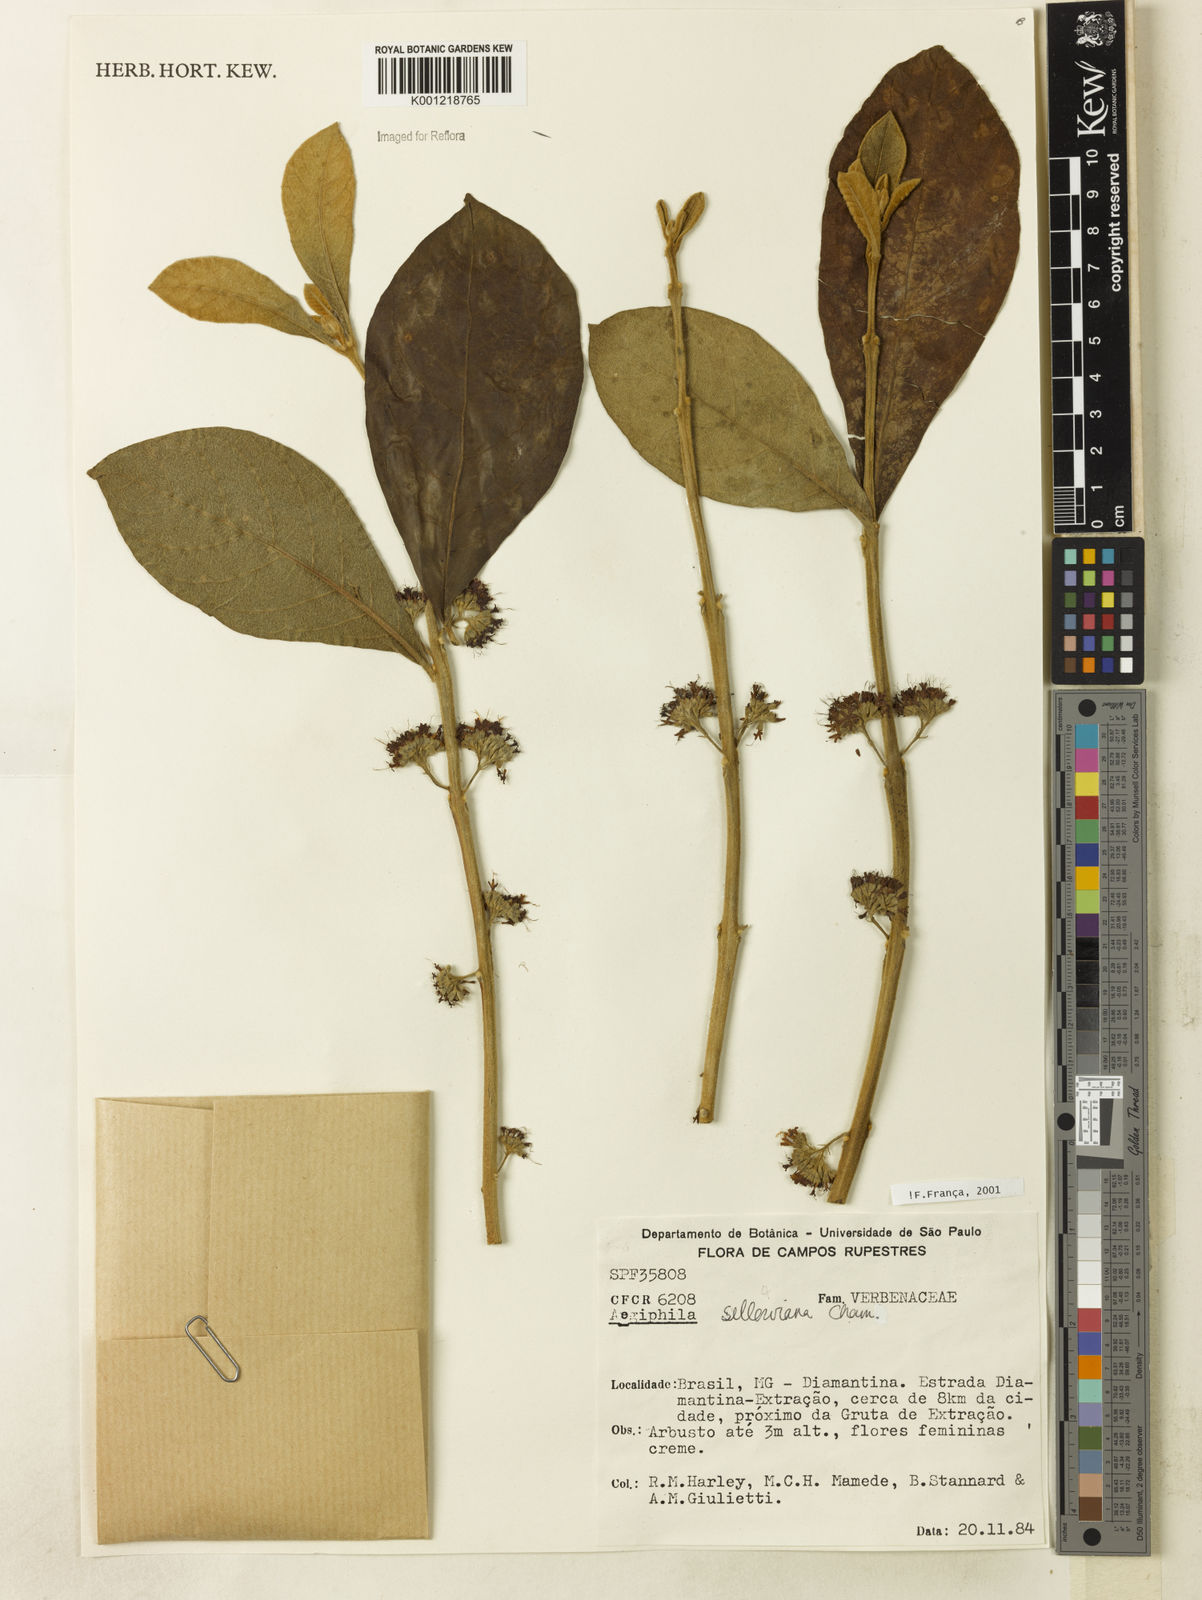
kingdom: Plantae
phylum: Tracheophyta
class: Magnoliopsida
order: Lamiales
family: Lamiaceae
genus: Aegiphila
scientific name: Aegiphila verticillata
